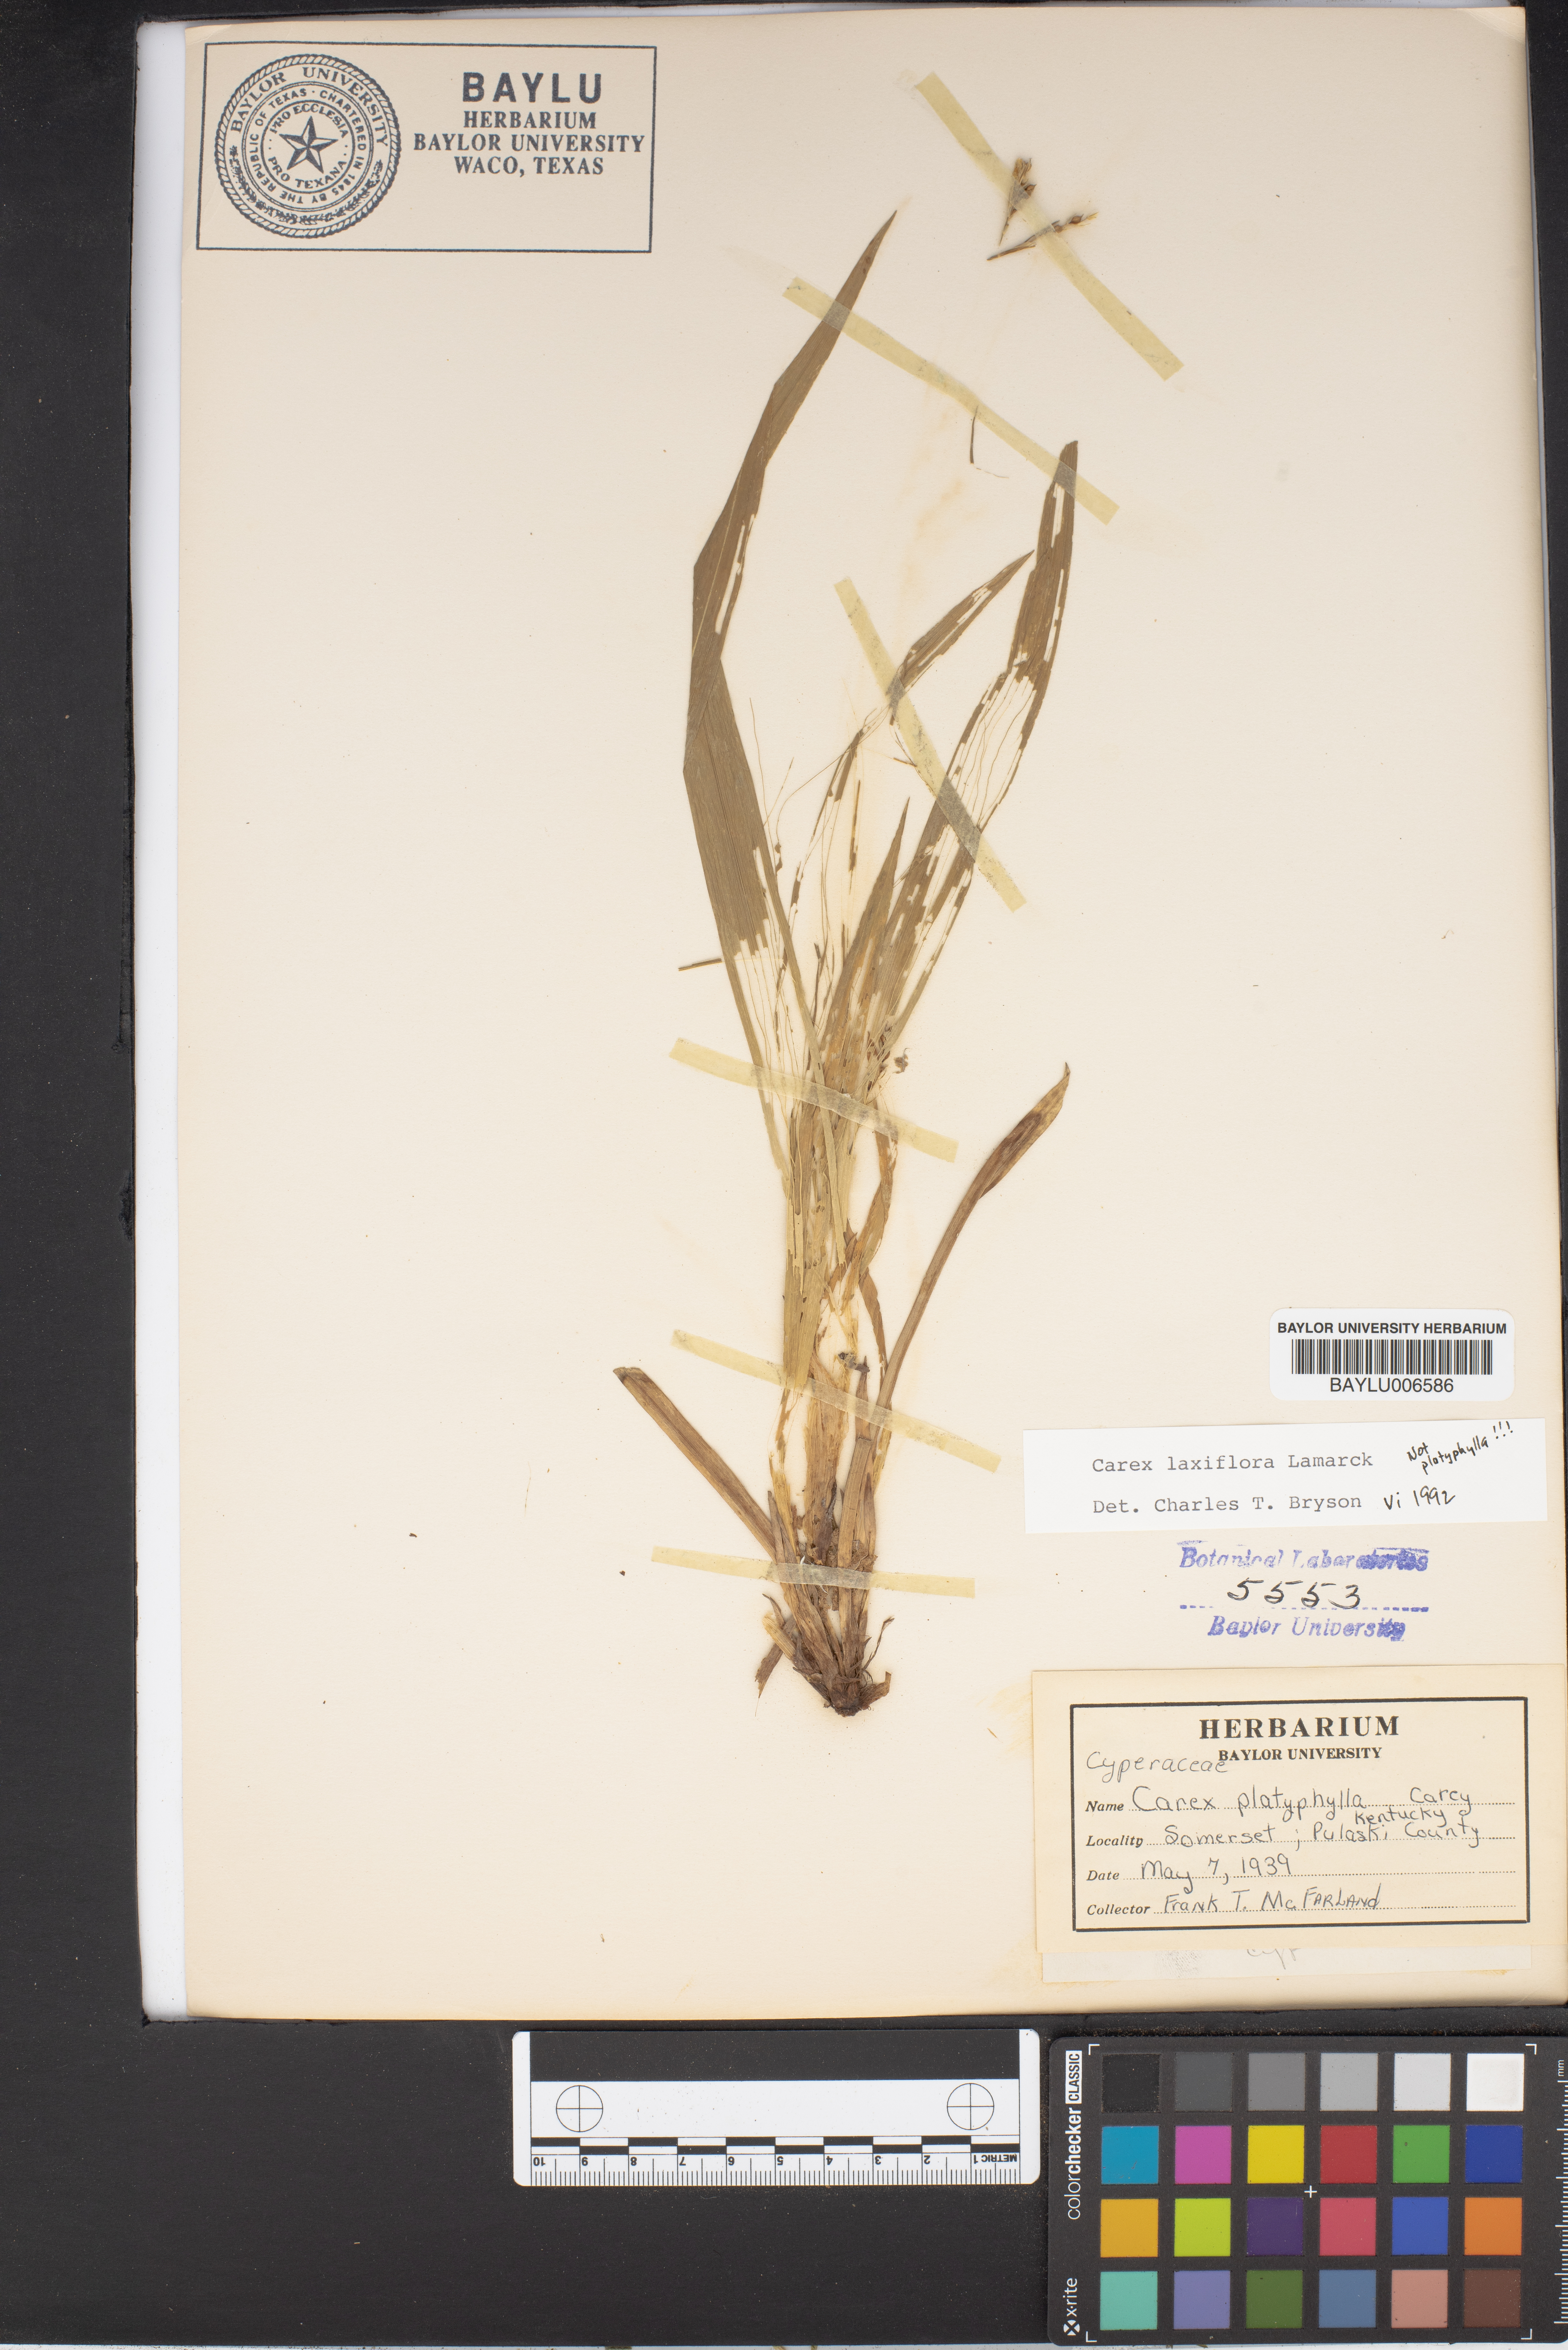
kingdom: Plantae
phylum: Tracheophyta
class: Liliopsida
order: Poales
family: Cyperaceae
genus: Carex
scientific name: Carex platyphylla
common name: Broad-leaved sedge
